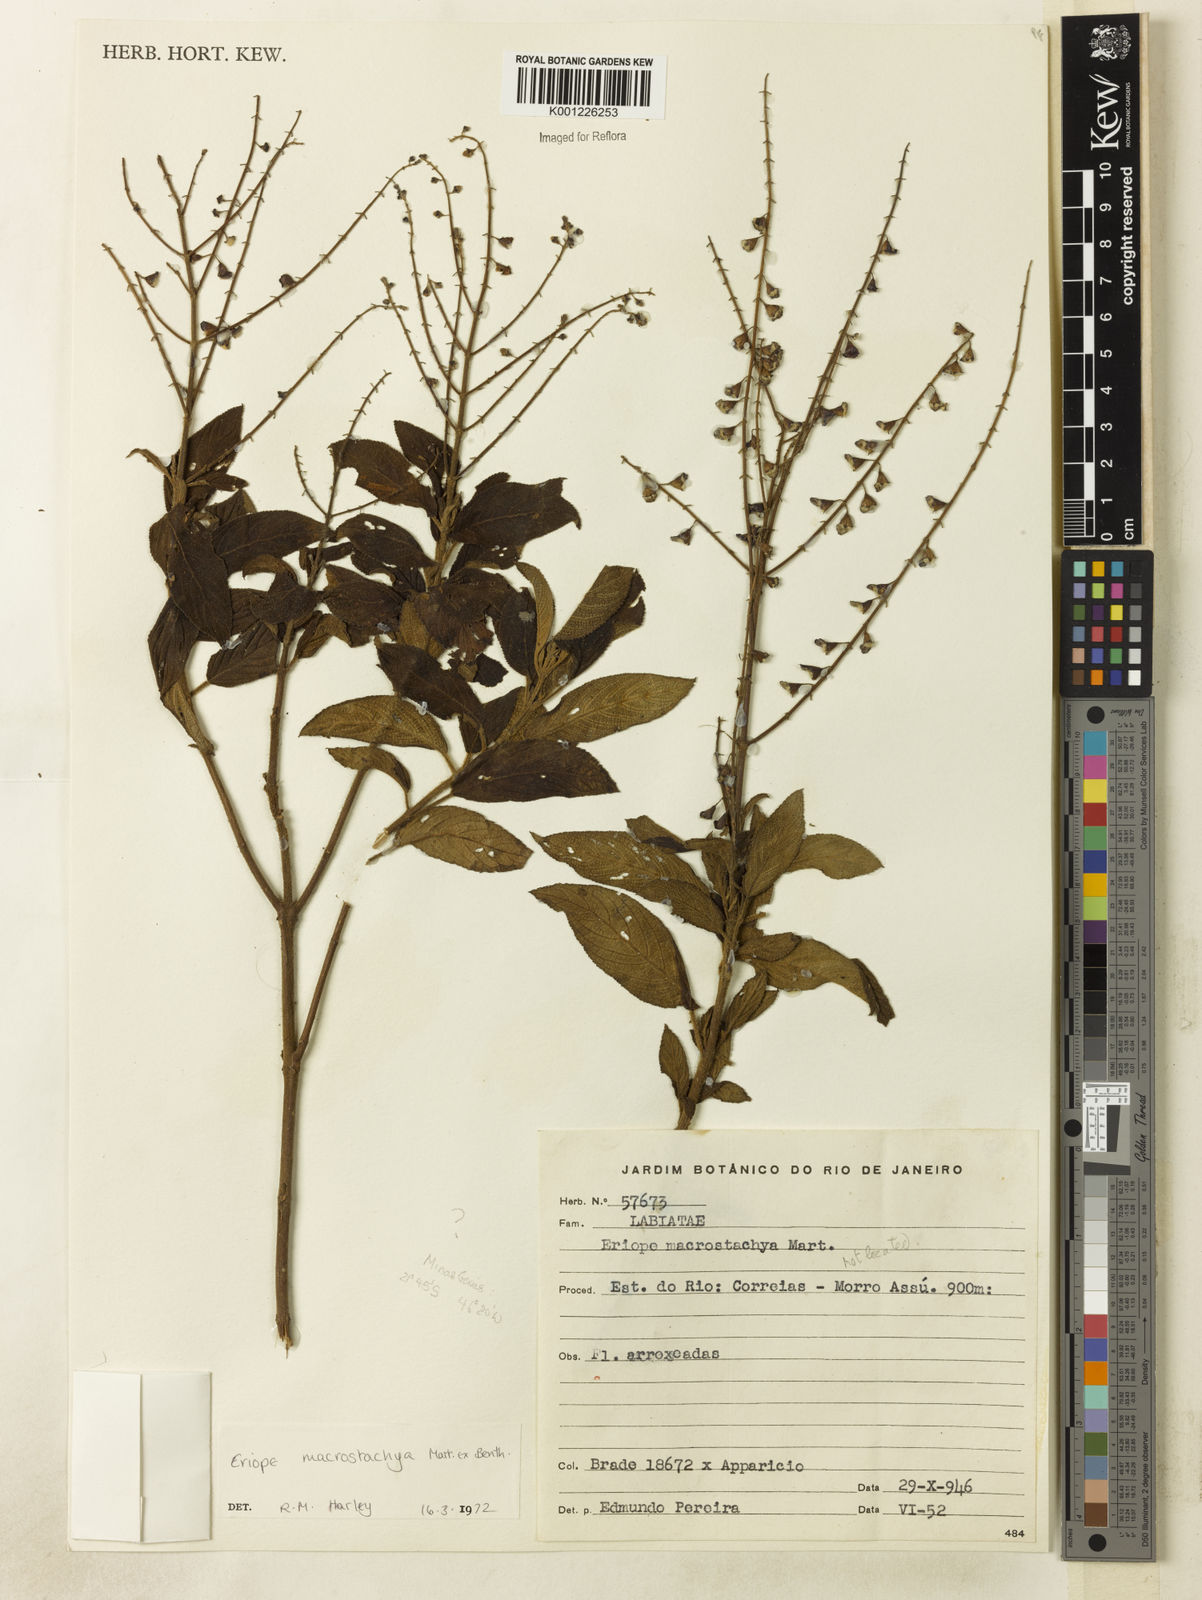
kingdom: Plantae
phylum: Tracheophyta
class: Magnoliopsida
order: Lamiales
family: Lamiaceae
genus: Eriope
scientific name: Eriope macrostachya
